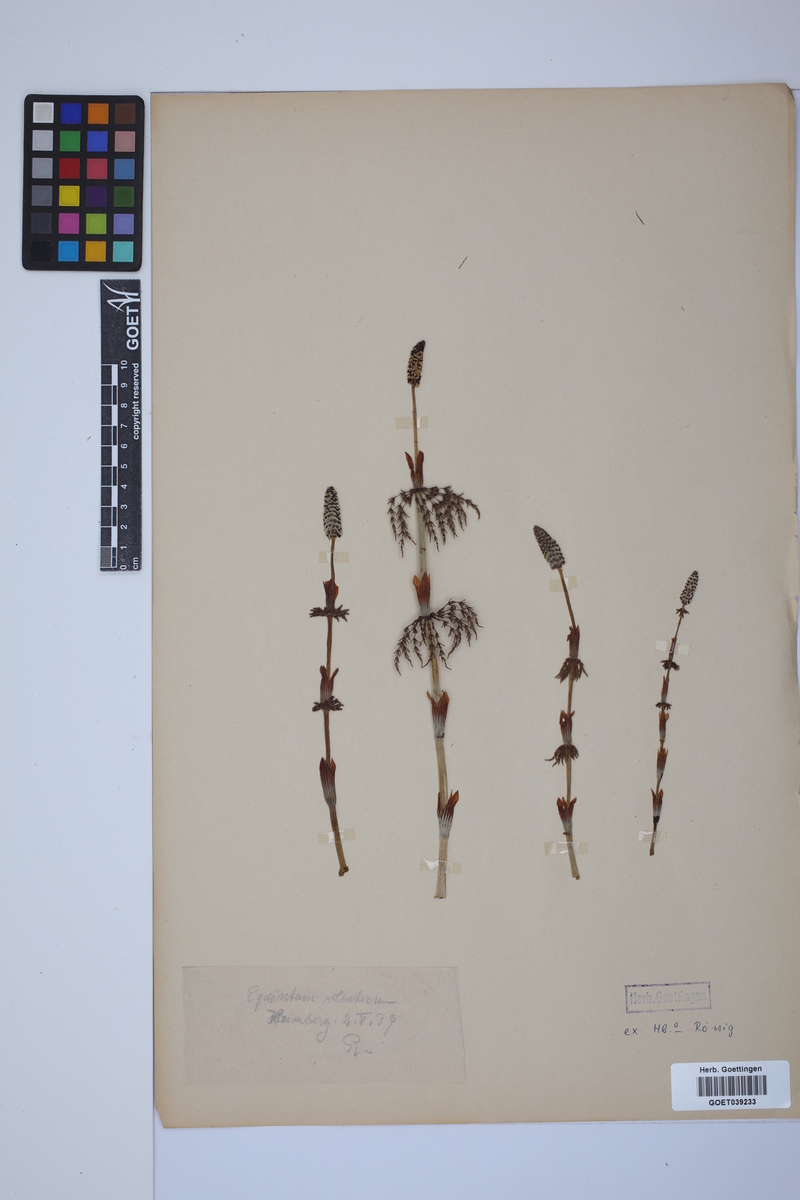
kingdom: Plantae
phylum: Tracheophyta
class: Polypodiopsida
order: Equisetales
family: Equisetaceae
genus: Equisetum
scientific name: Equisetum sylvaticum
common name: Wood horsetail
